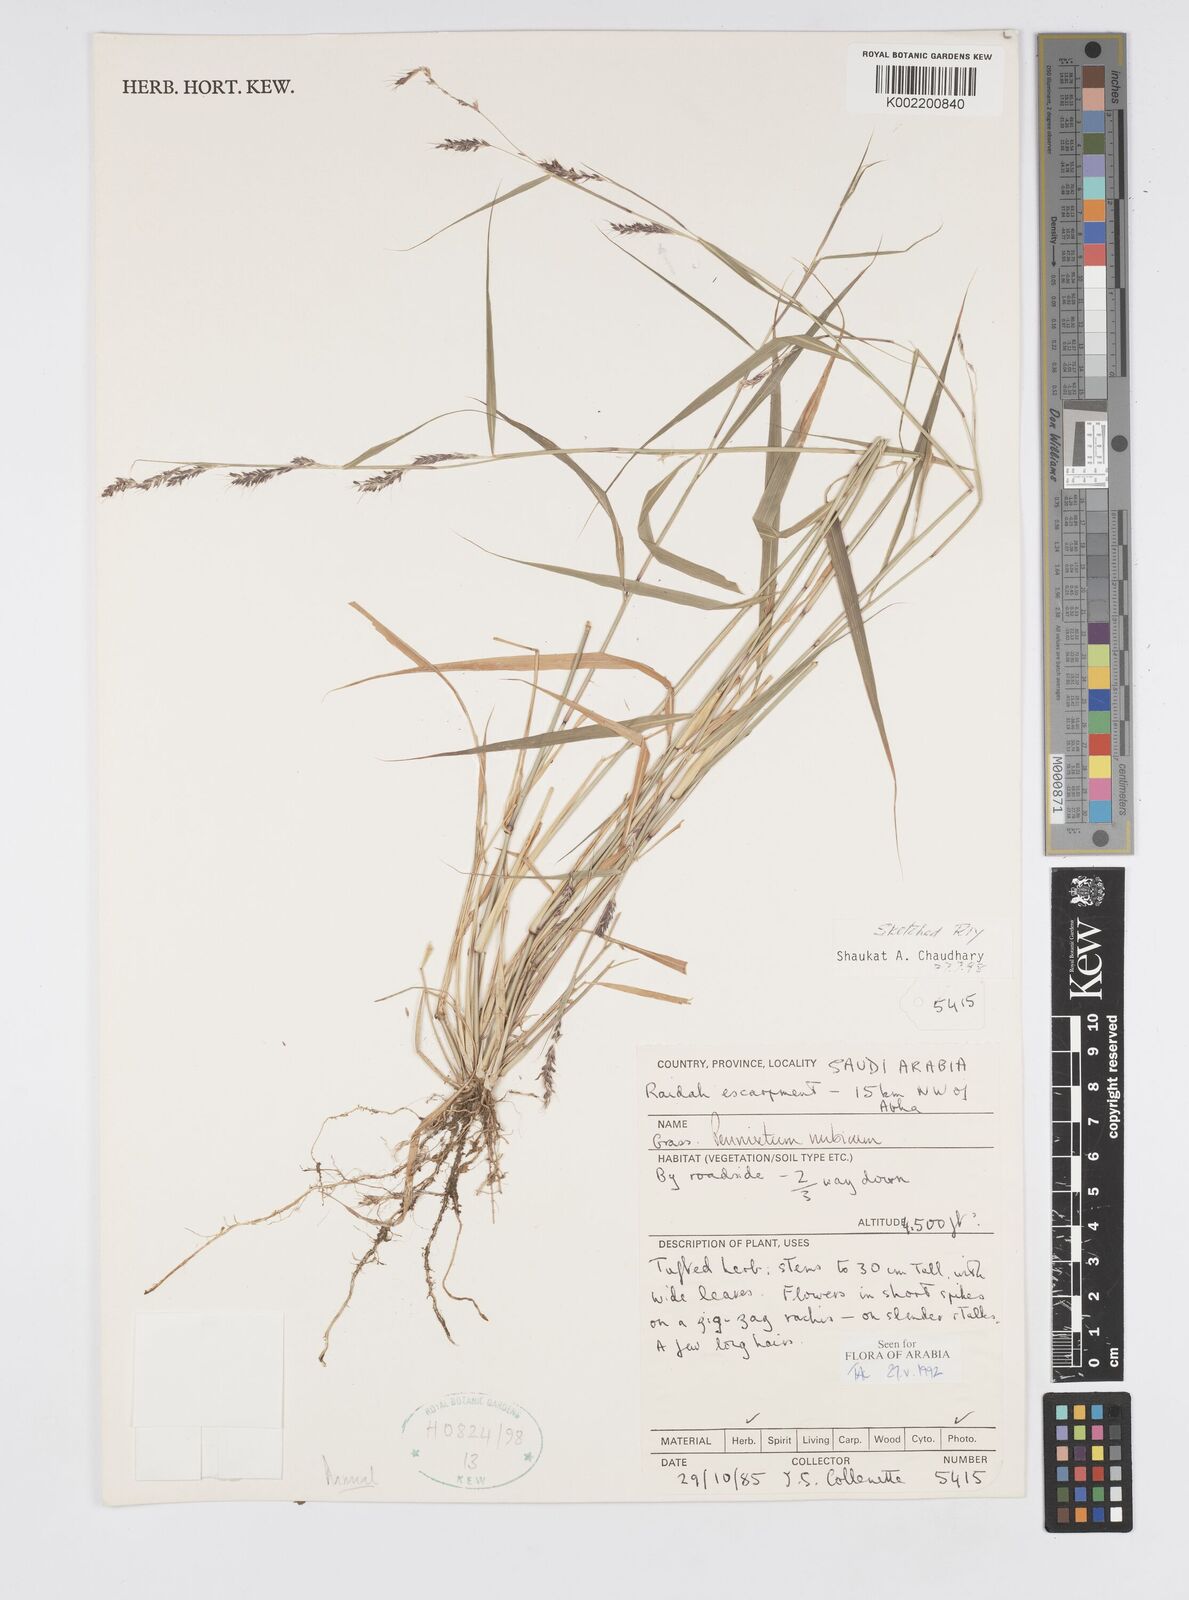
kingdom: Plantae
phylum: Tracheophyta
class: Liliopsida
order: Poales
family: Poaceae
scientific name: Poaceae
